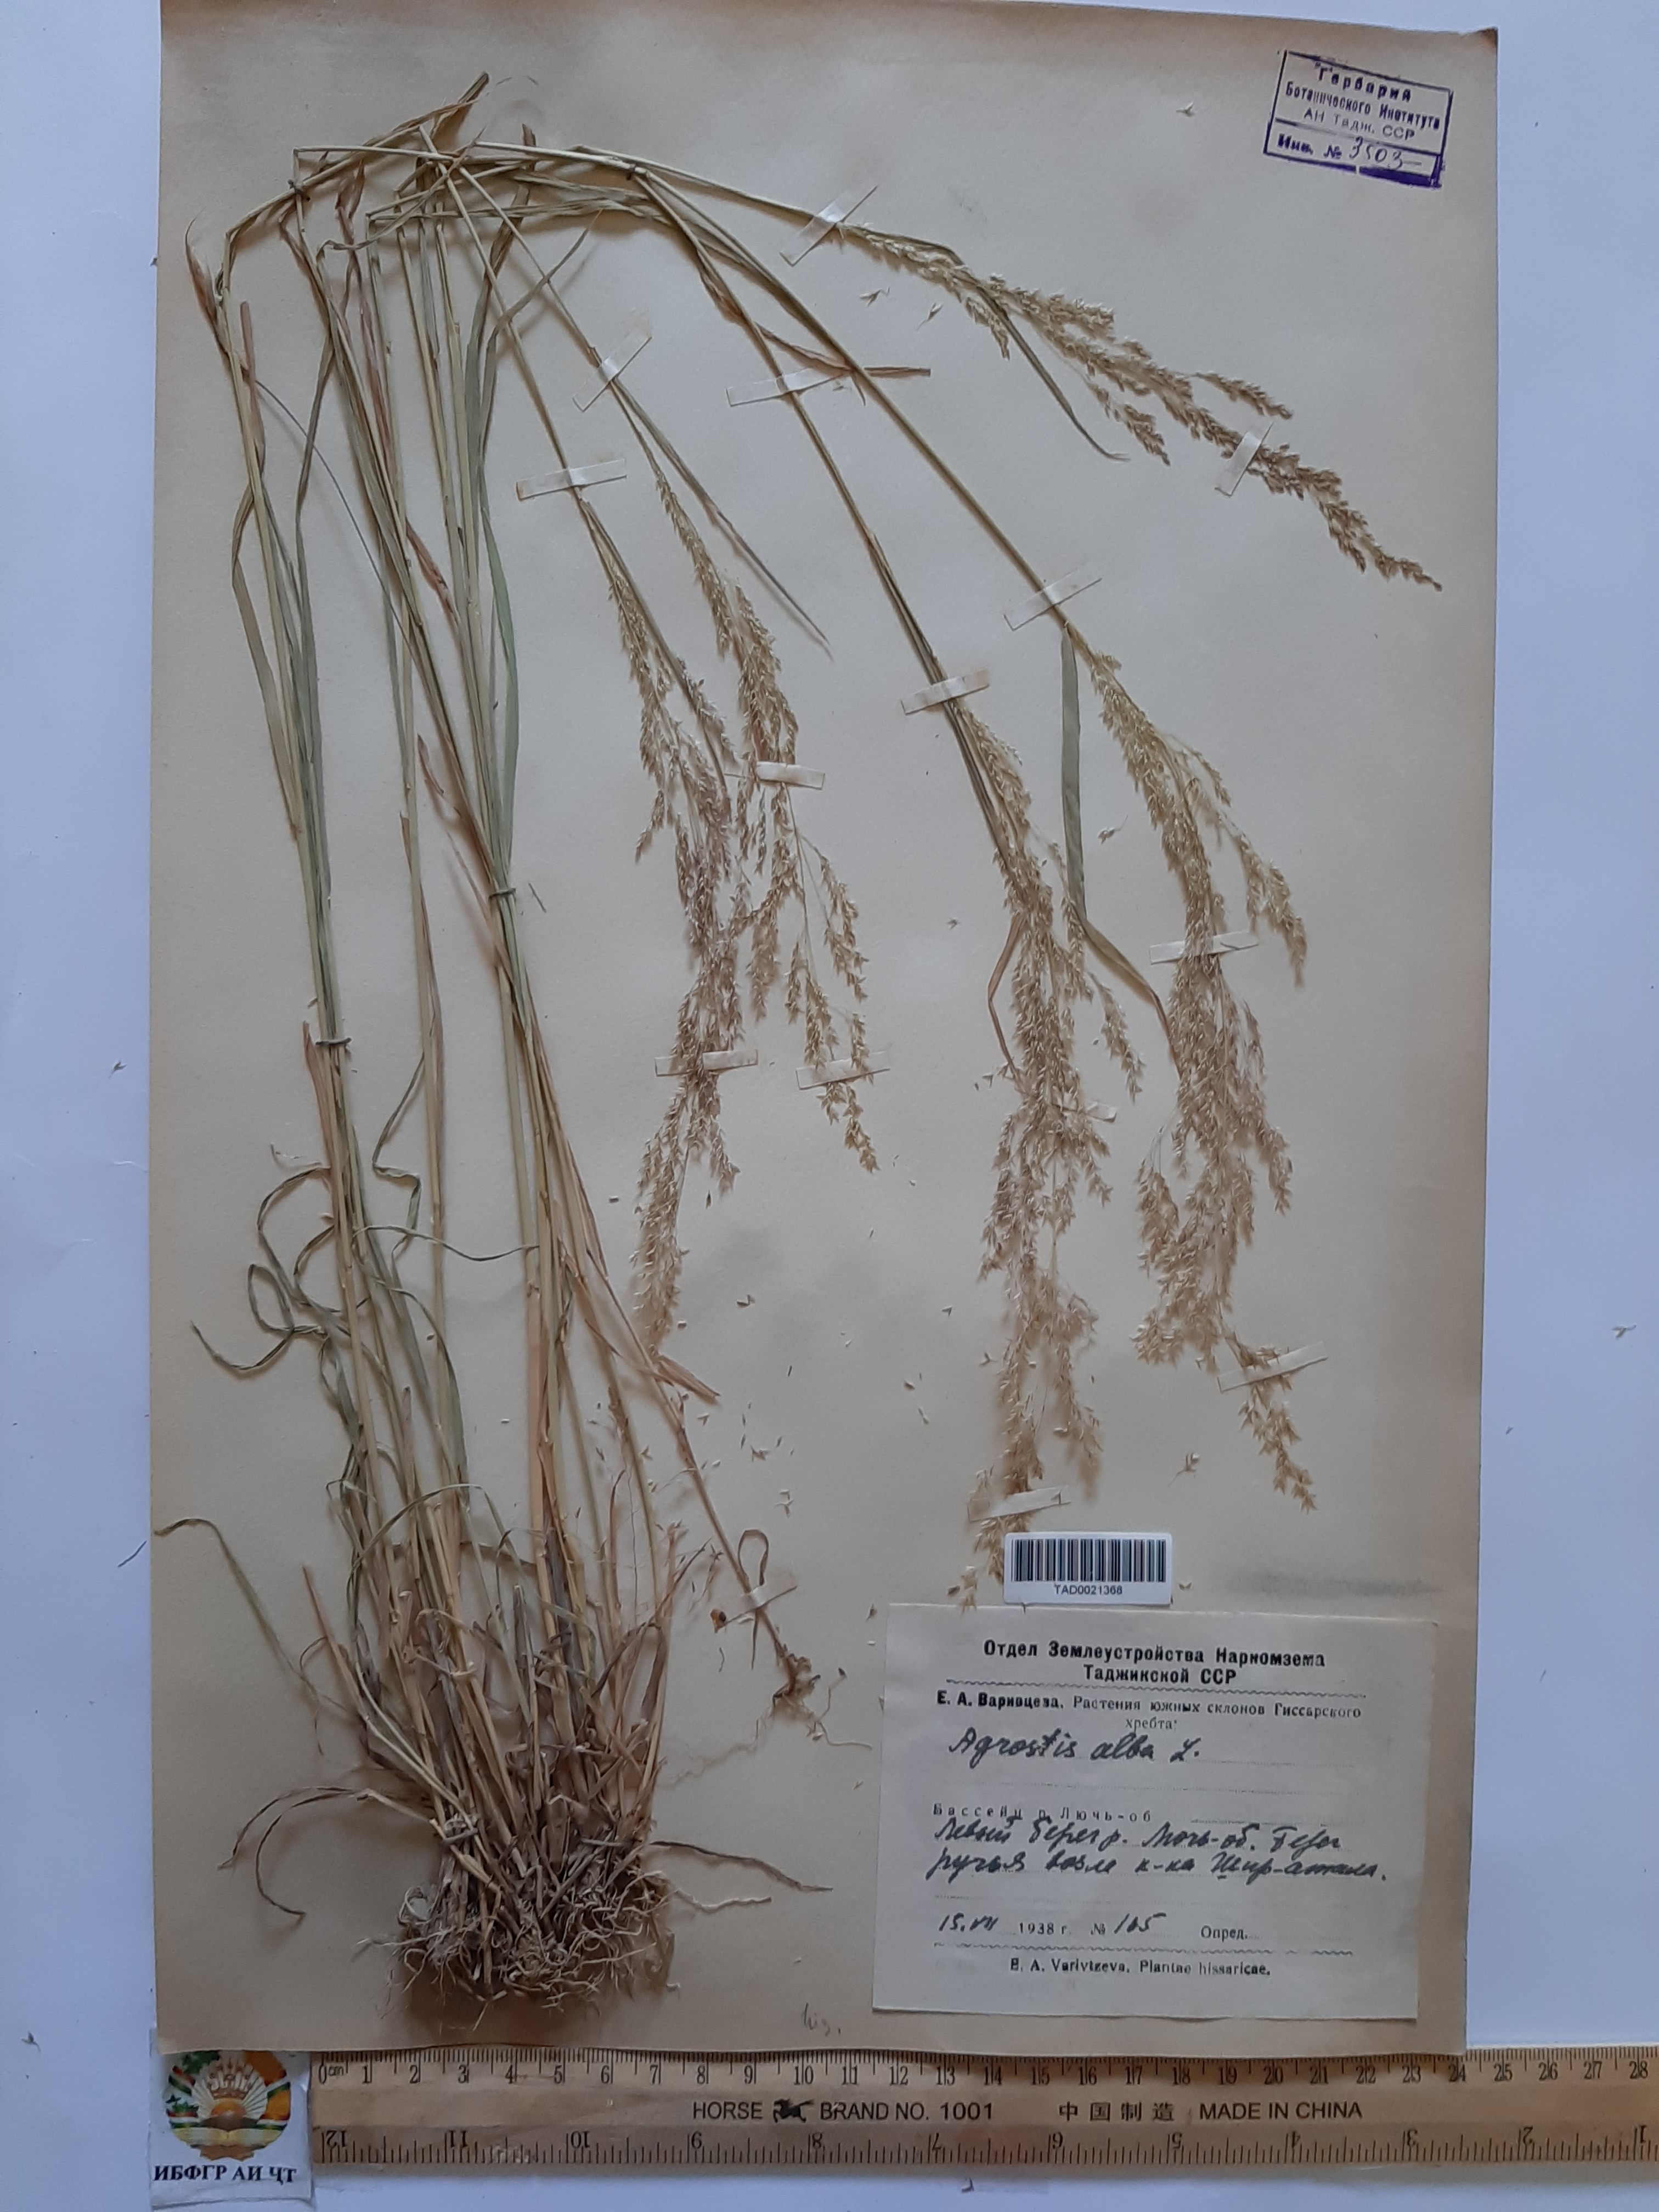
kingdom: Plantae
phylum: Tracheophyta
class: Liliopsida
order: Poales
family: Poaceae
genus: Poa
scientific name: Poa nemoralis
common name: Wood bluegrass
